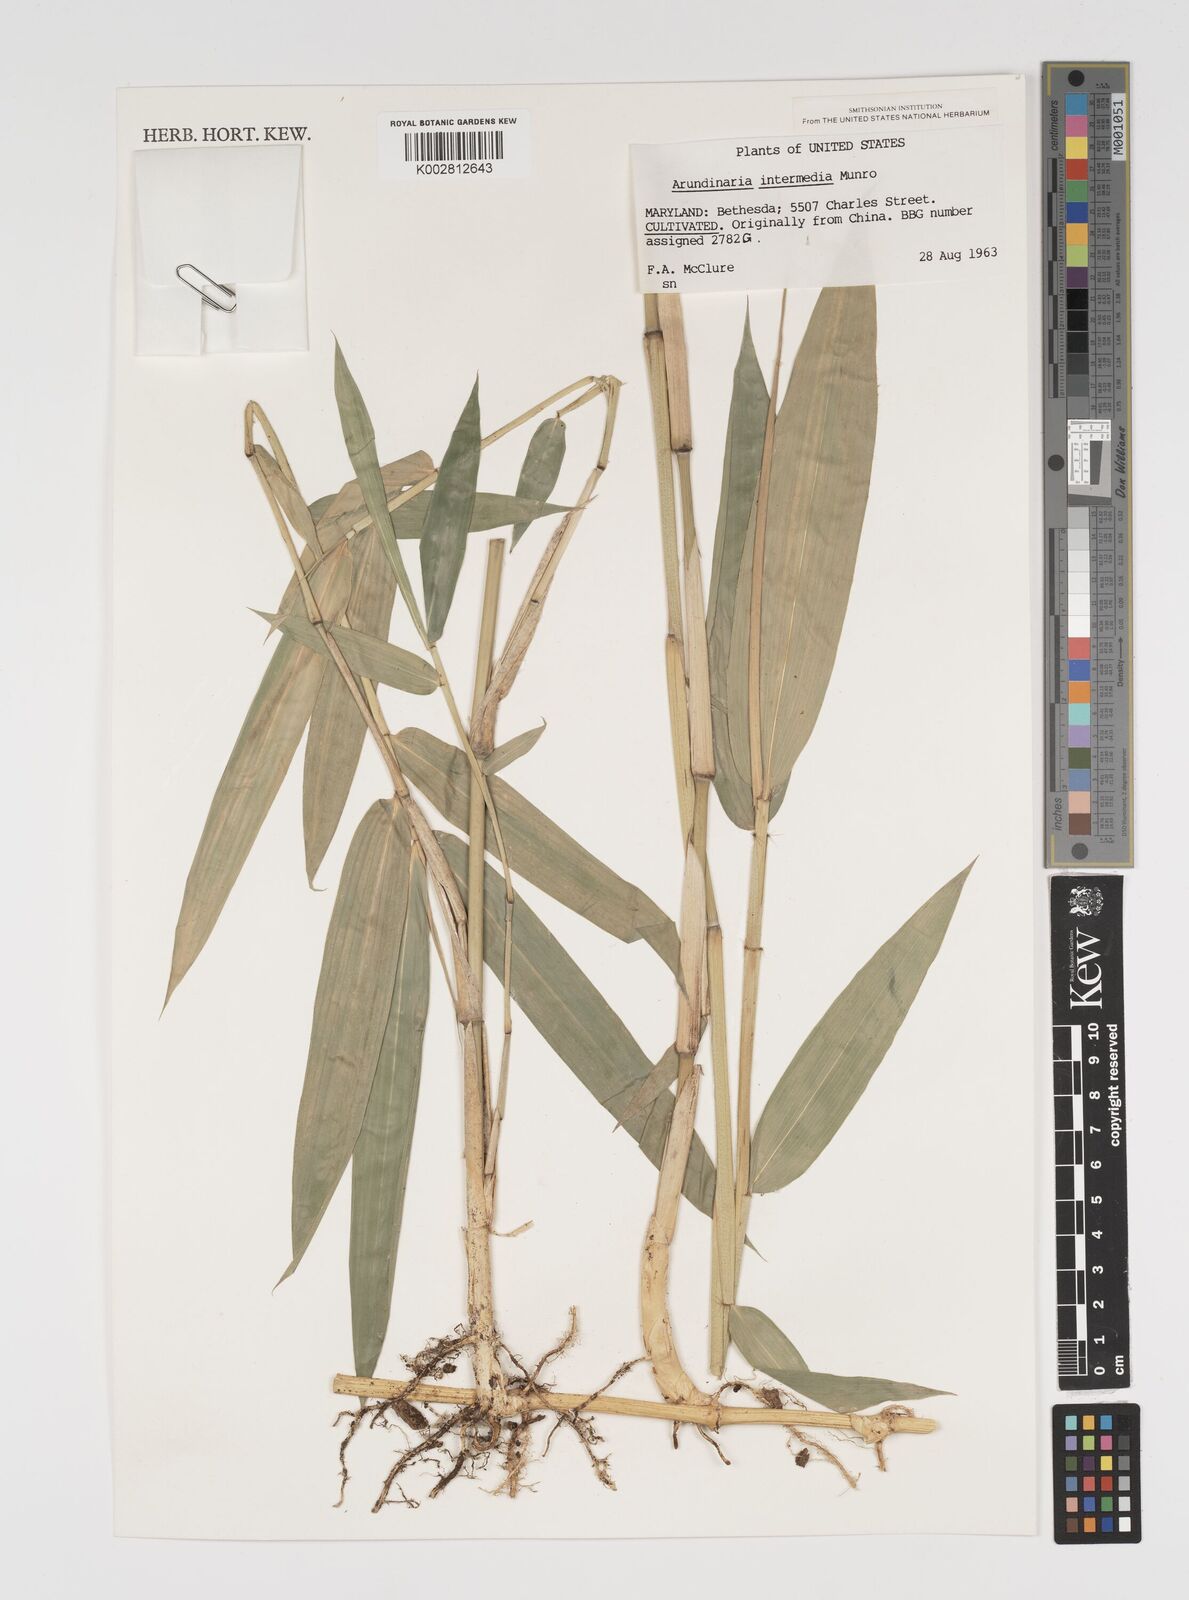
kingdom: Plantae
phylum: Tracheophyta
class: Liliopsida
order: Poales
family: Poaceae
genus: Arundinaria
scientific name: Arundinaria
